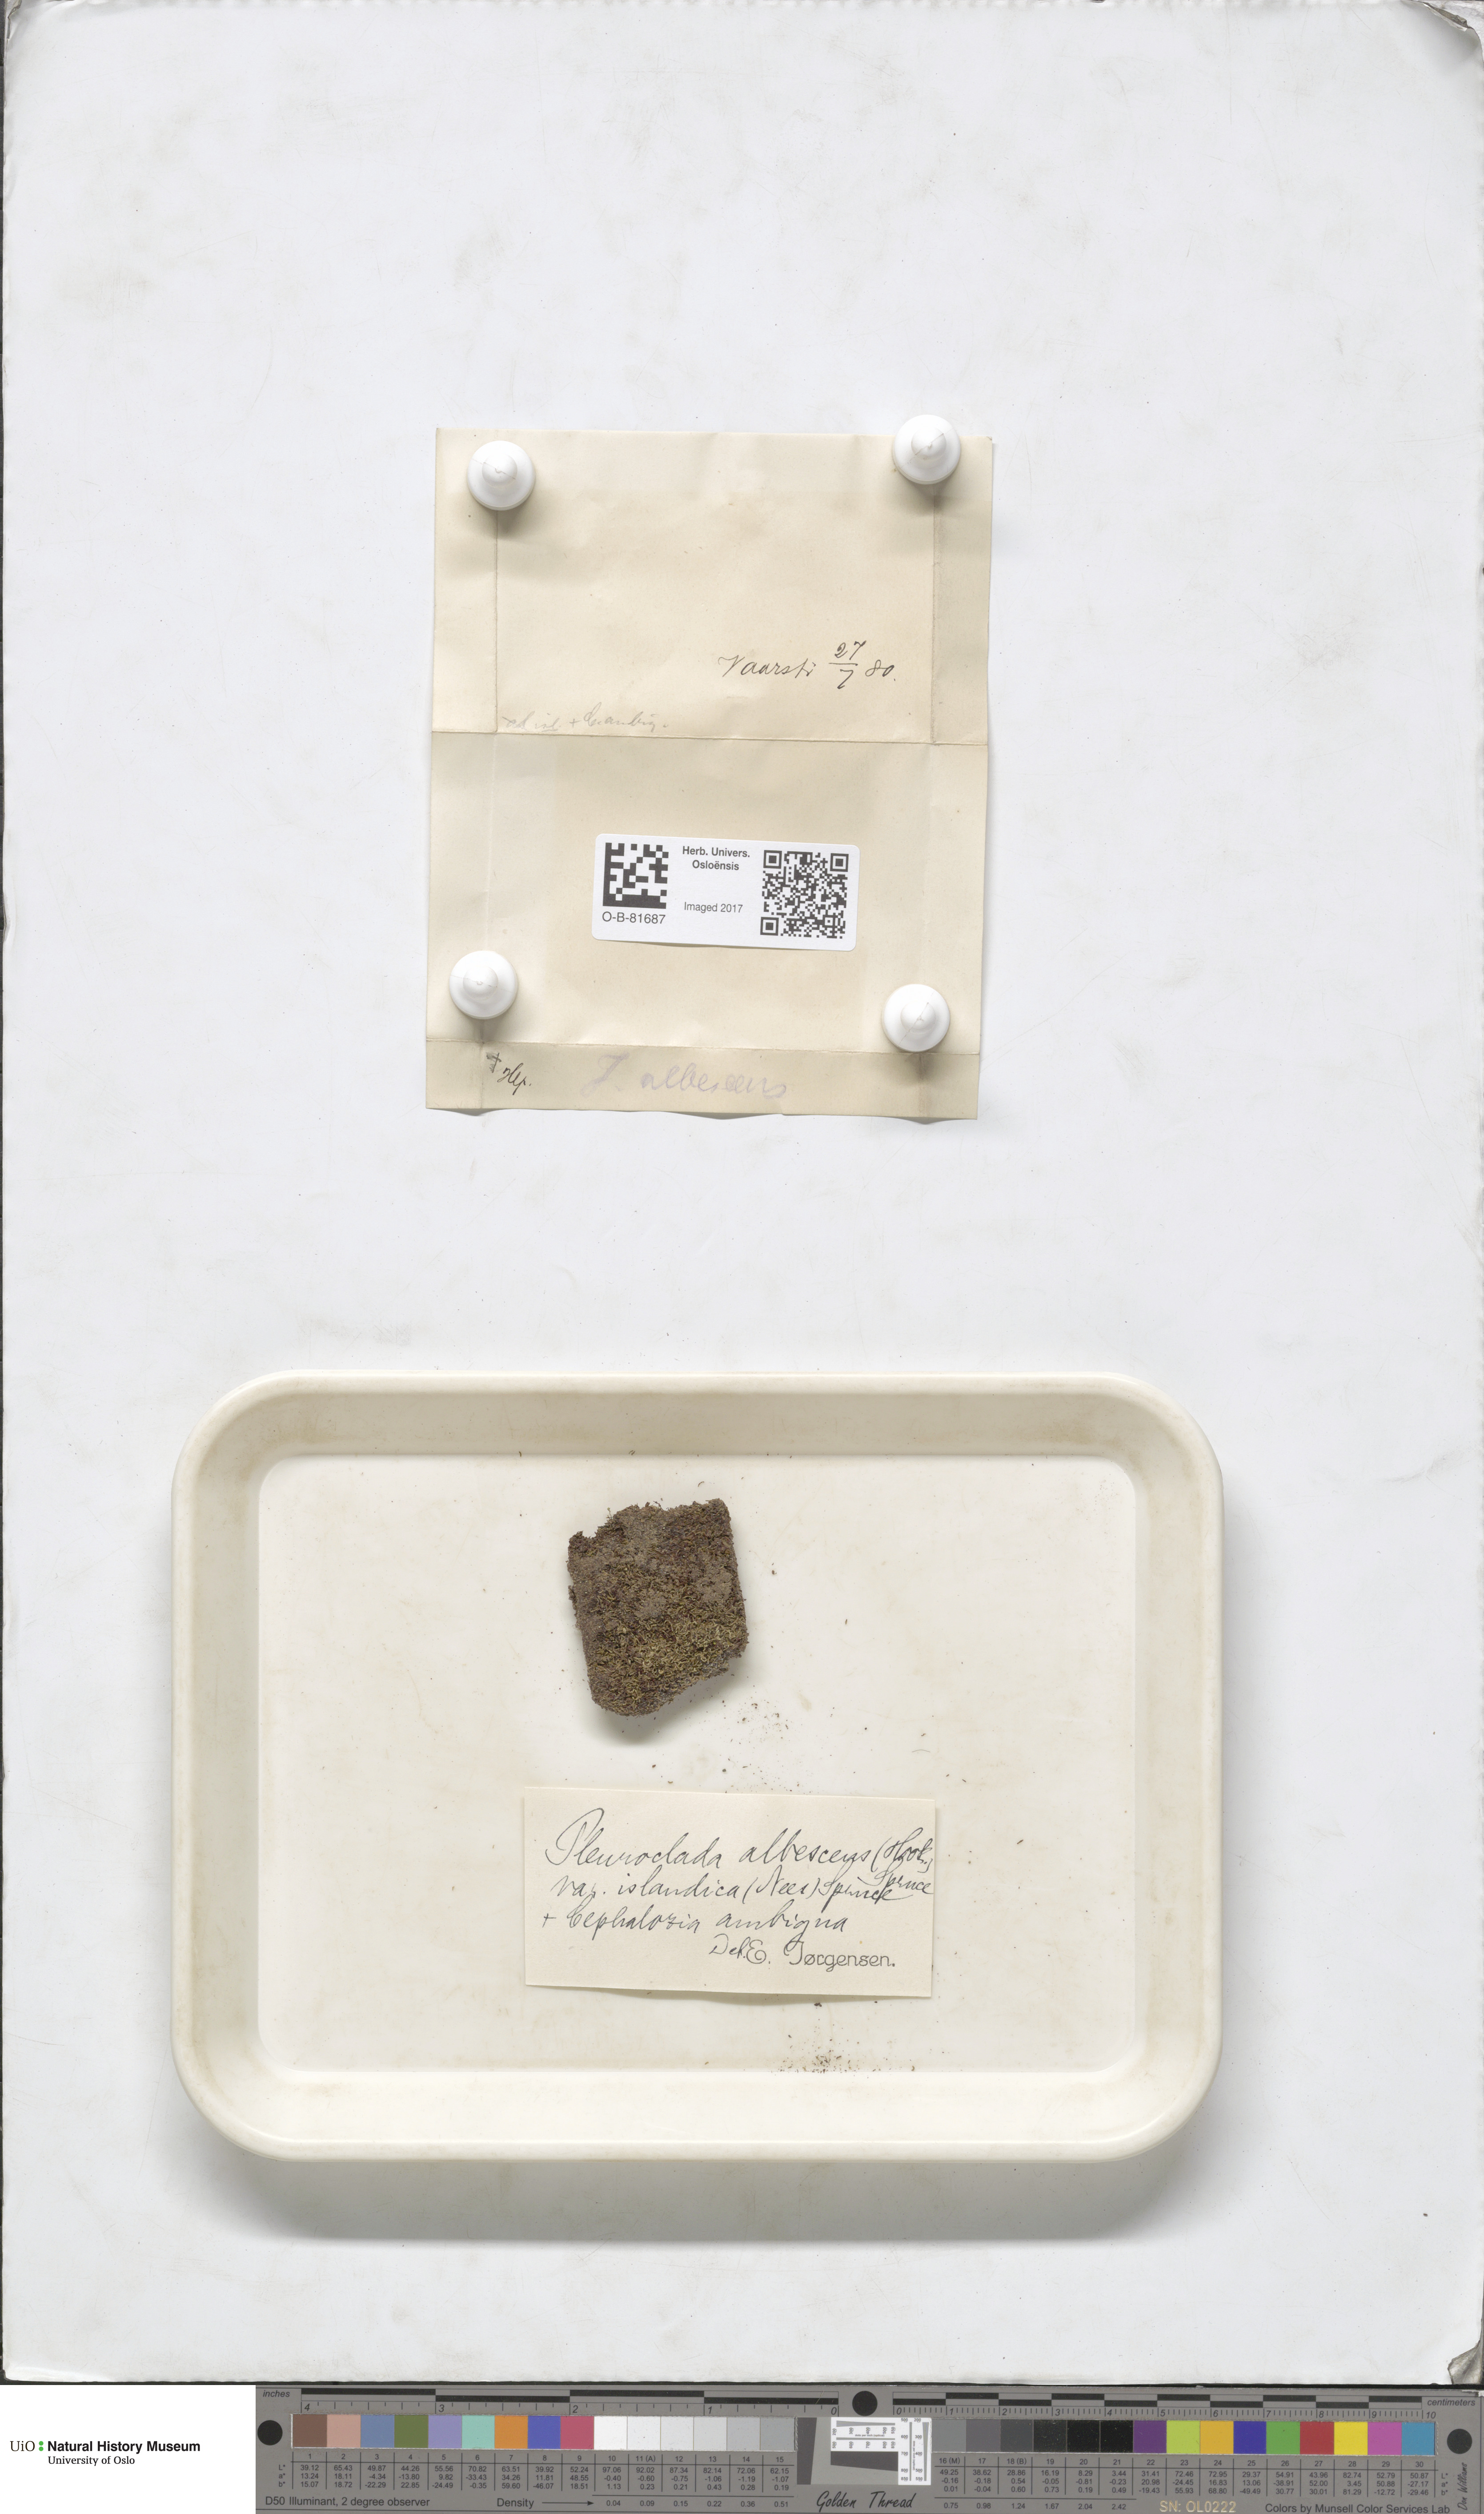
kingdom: Plantae
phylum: Marchantiophyta
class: Jungermanniopsida
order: Jungermanniales
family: Cephaloziaceae
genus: Fuscocephaloziopsis
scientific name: Fuscocephaloziopsis albescens
